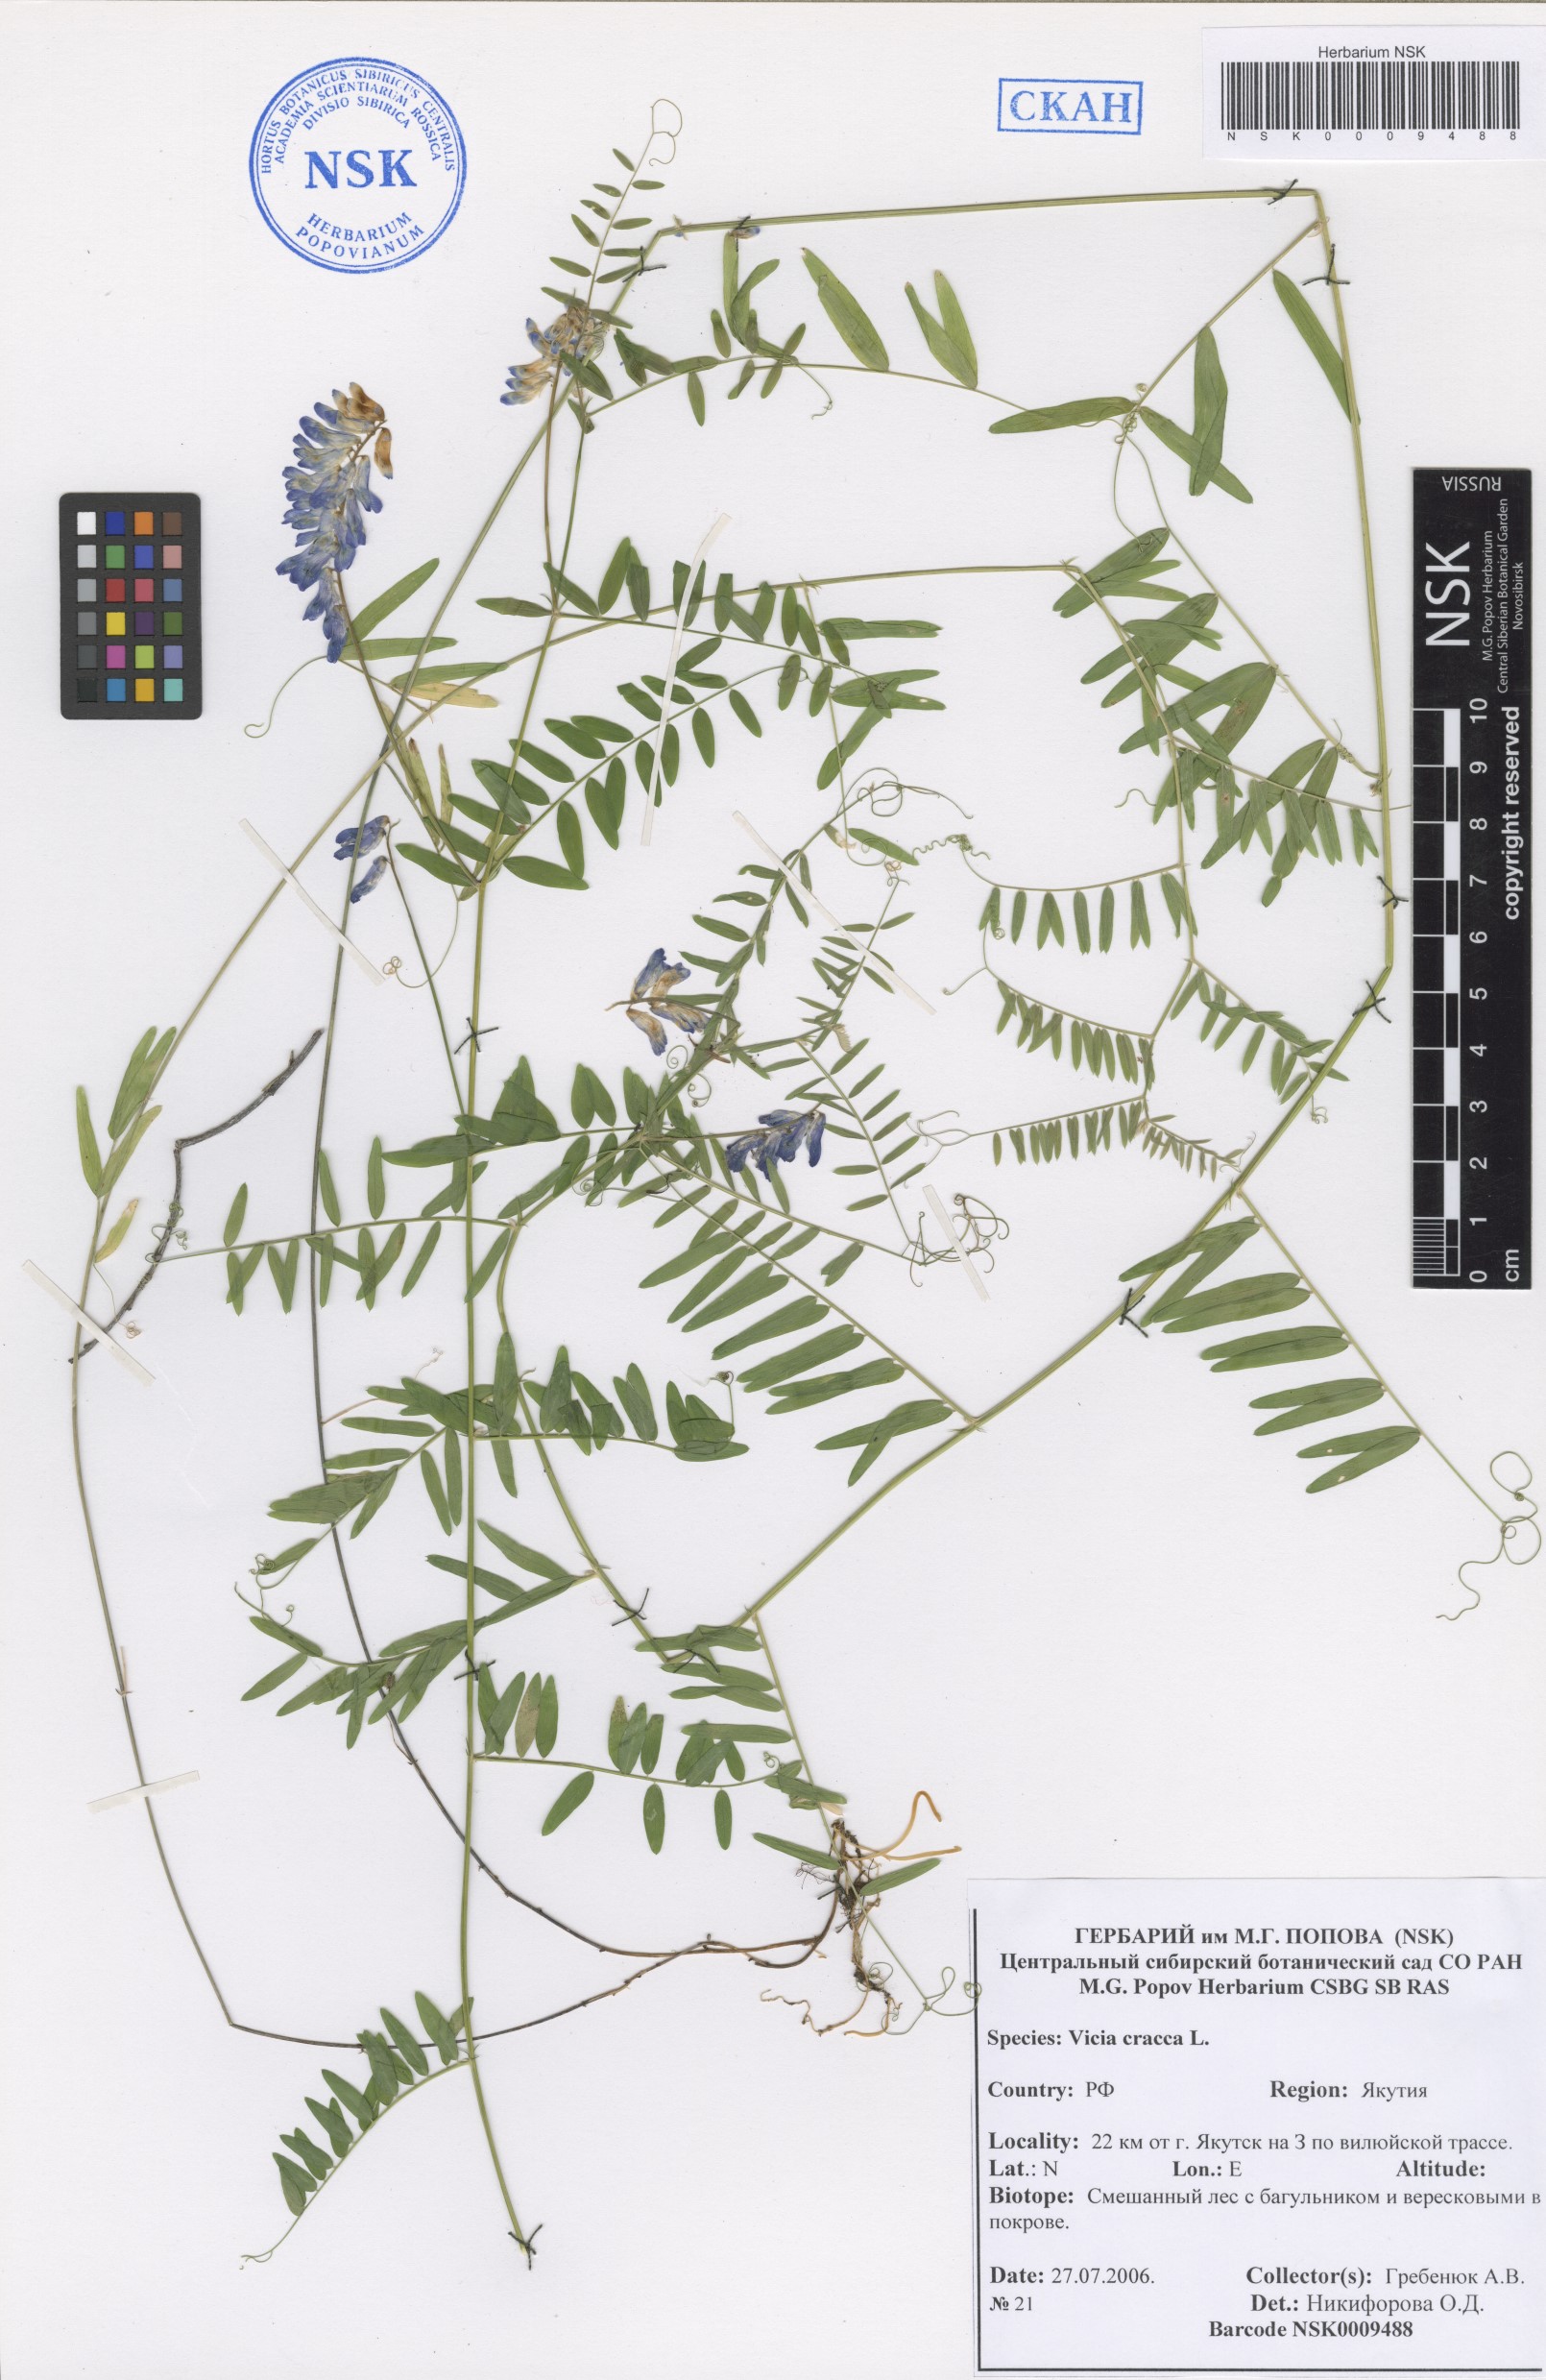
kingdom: Plantae
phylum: Tracheophyta
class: Magnoliopsida
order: Fabales
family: Fabaceae
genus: Vicia
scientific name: Vicia cracca
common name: Bird vetch
